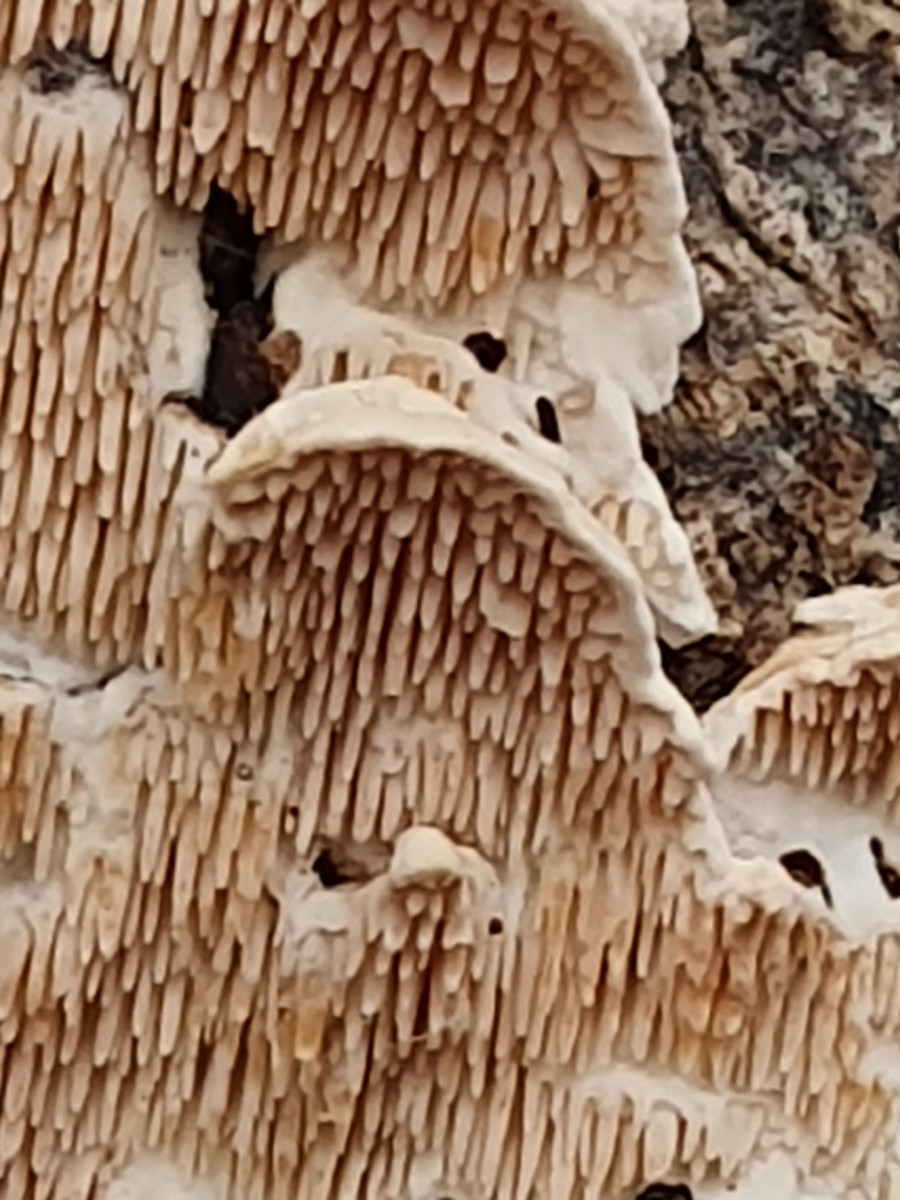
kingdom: Fungi
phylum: Basidiomycota
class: Agaricomycetes
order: Polyporales
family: Steccherinaceae
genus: Steccherinum
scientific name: Steccherinum bourdotii
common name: hat-skønpig
